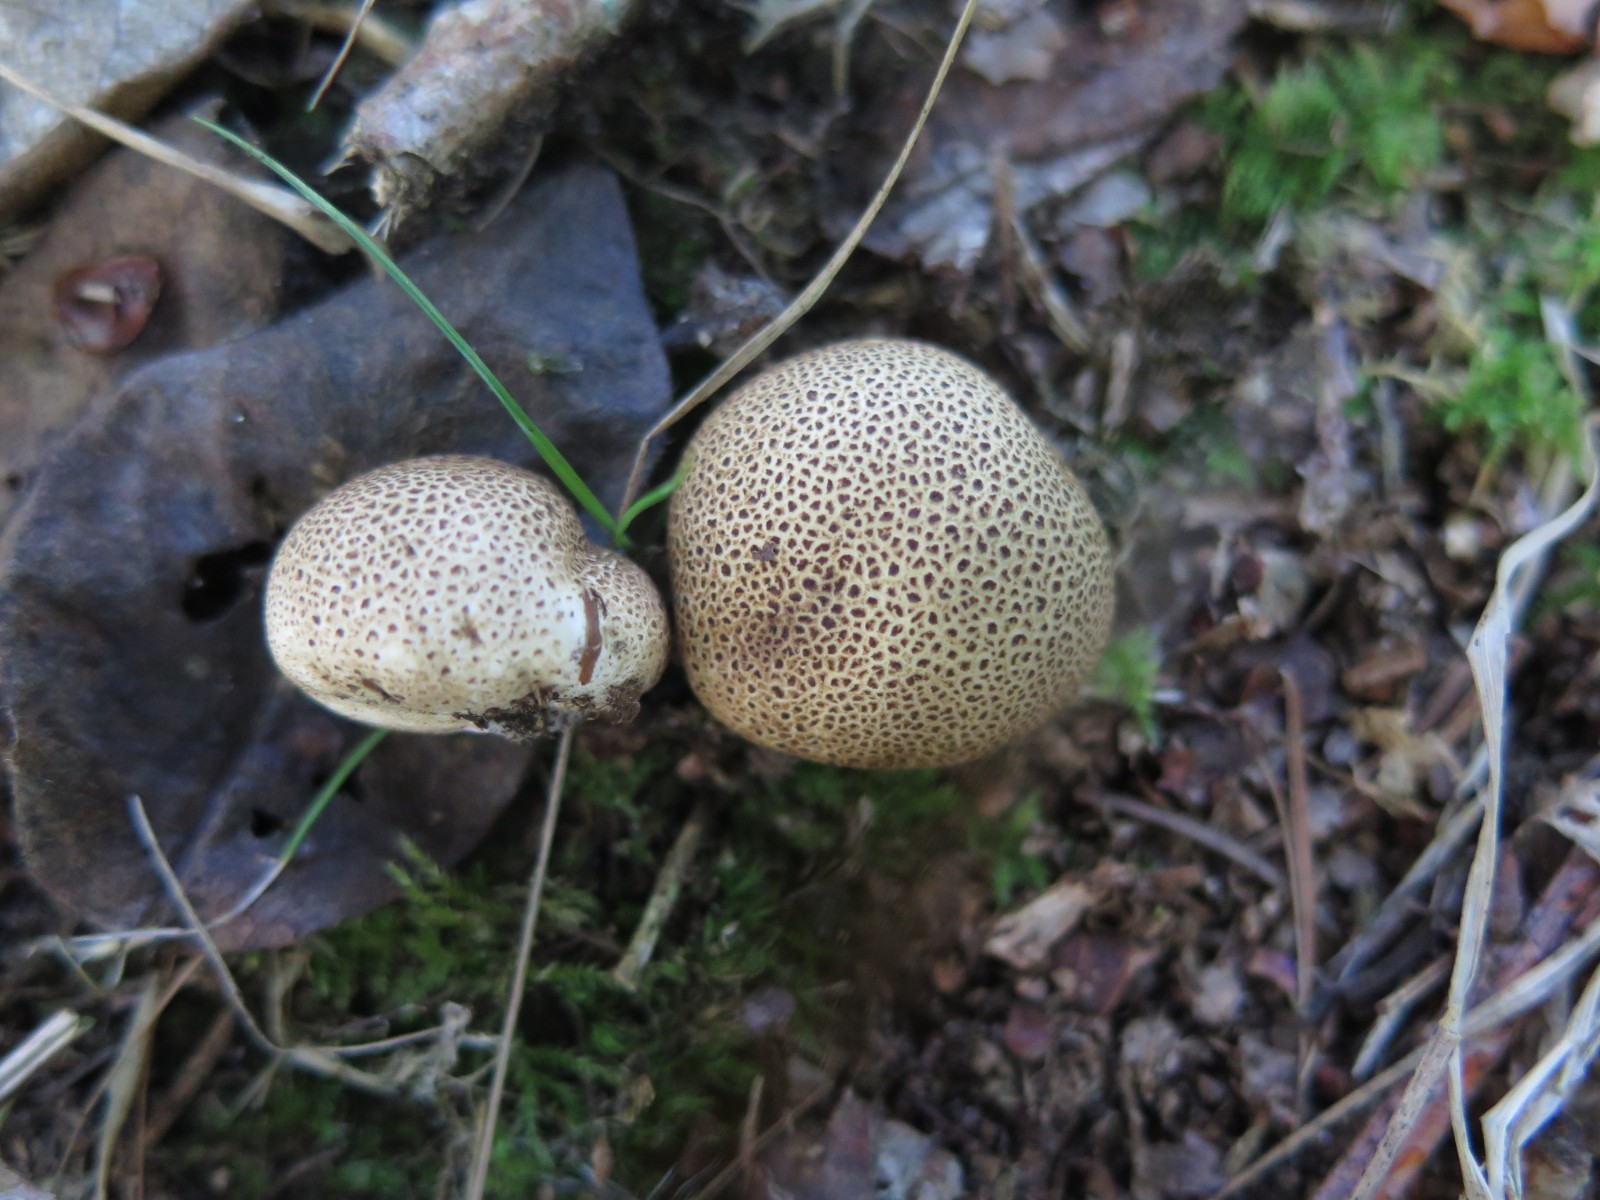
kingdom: Fungi
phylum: Basidiomycota
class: Agaricomycetes
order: Boletales
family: Sclerodermataceae
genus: Scleroderma
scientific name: Scleroderma areolatum
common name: plettet bruskbold
